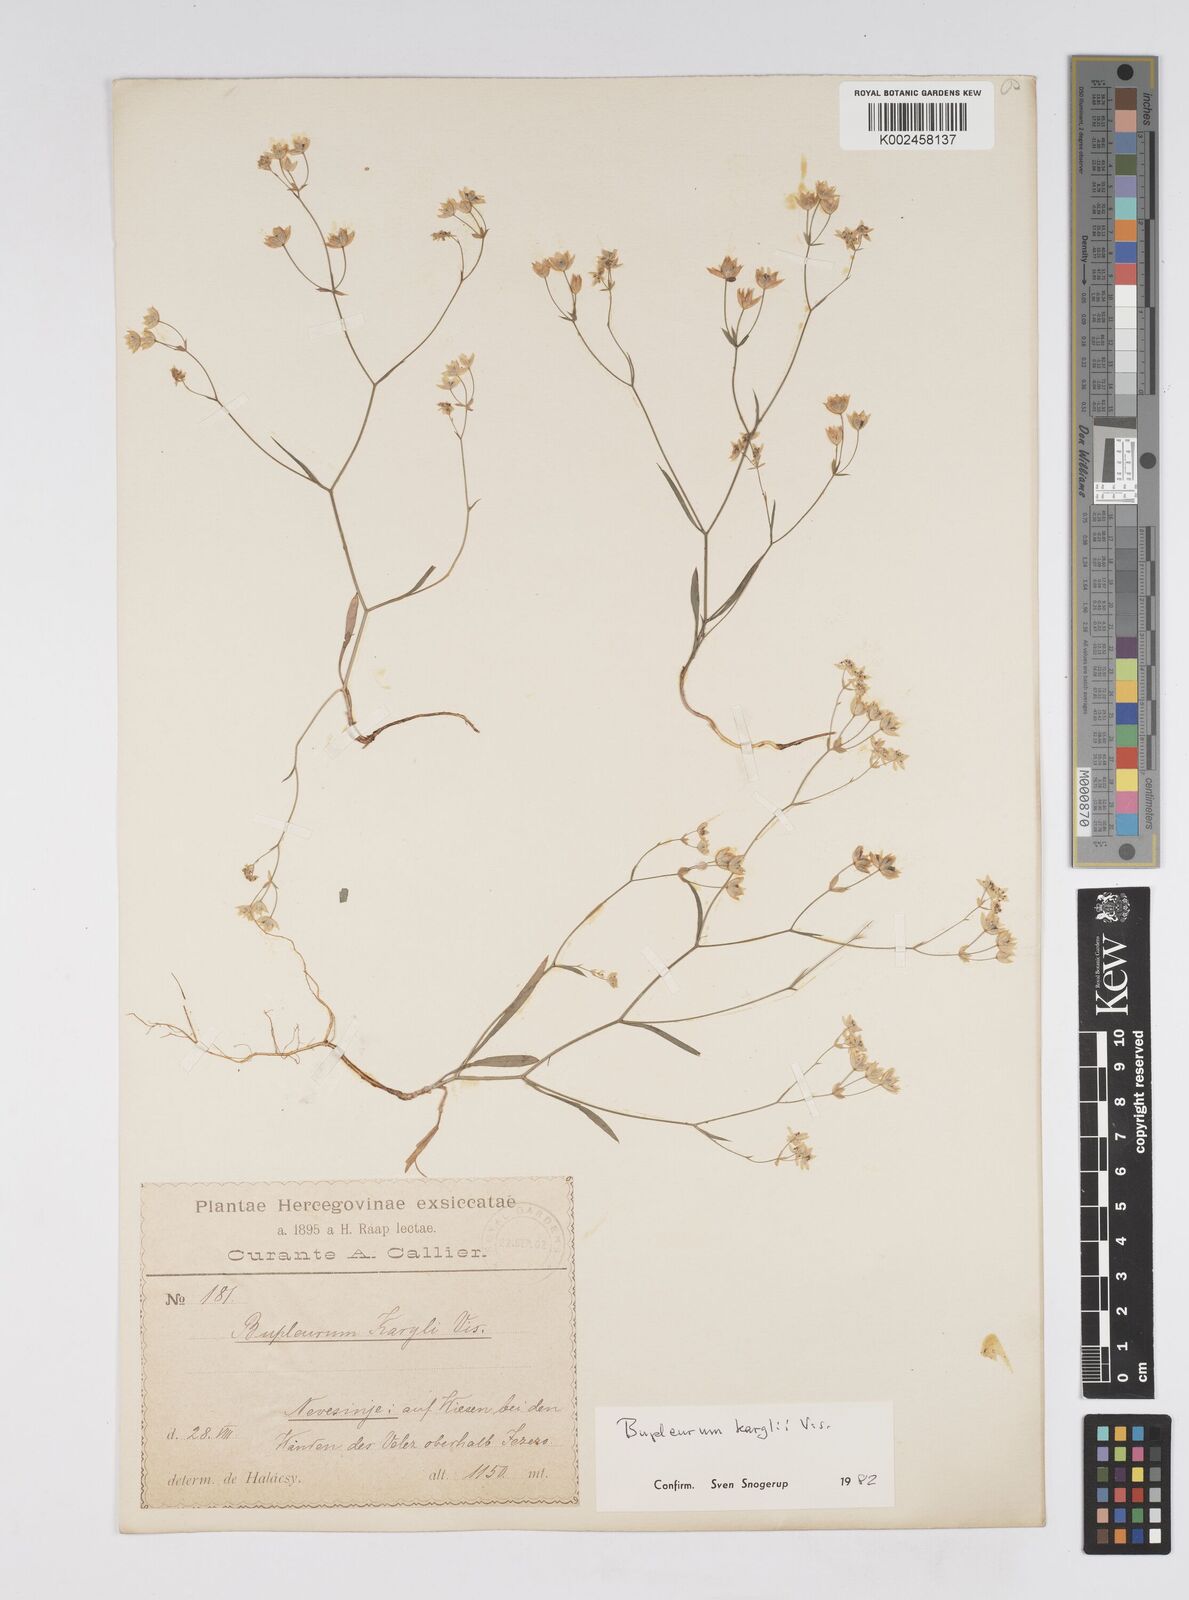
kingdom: Plantae
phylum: Tracheophyta
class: Magnoliopsida
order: Apiales
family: Apiaceae
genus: Bupleurum
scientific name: Bupleurum karglii
